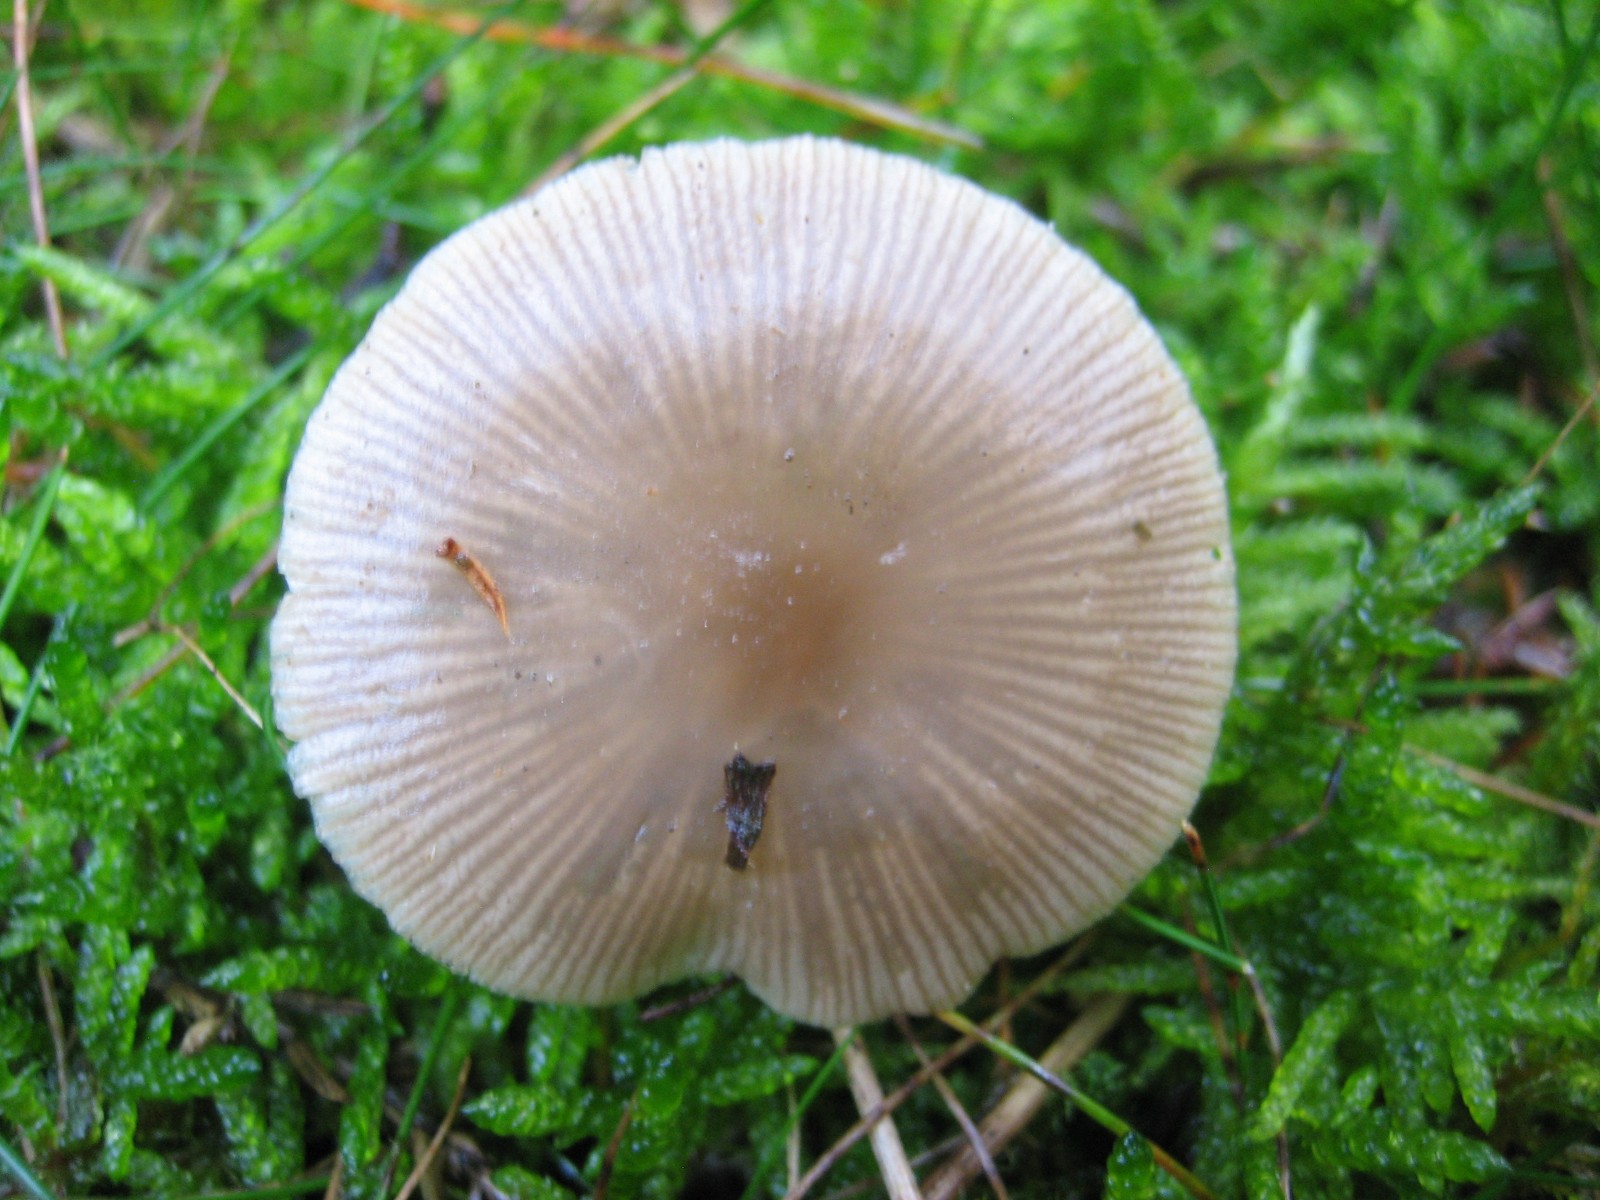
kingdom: Fungi
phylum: Basidiomycota
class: Agaricomycetes
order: Agaricales
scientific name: Agaricales
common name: champignonordenen
